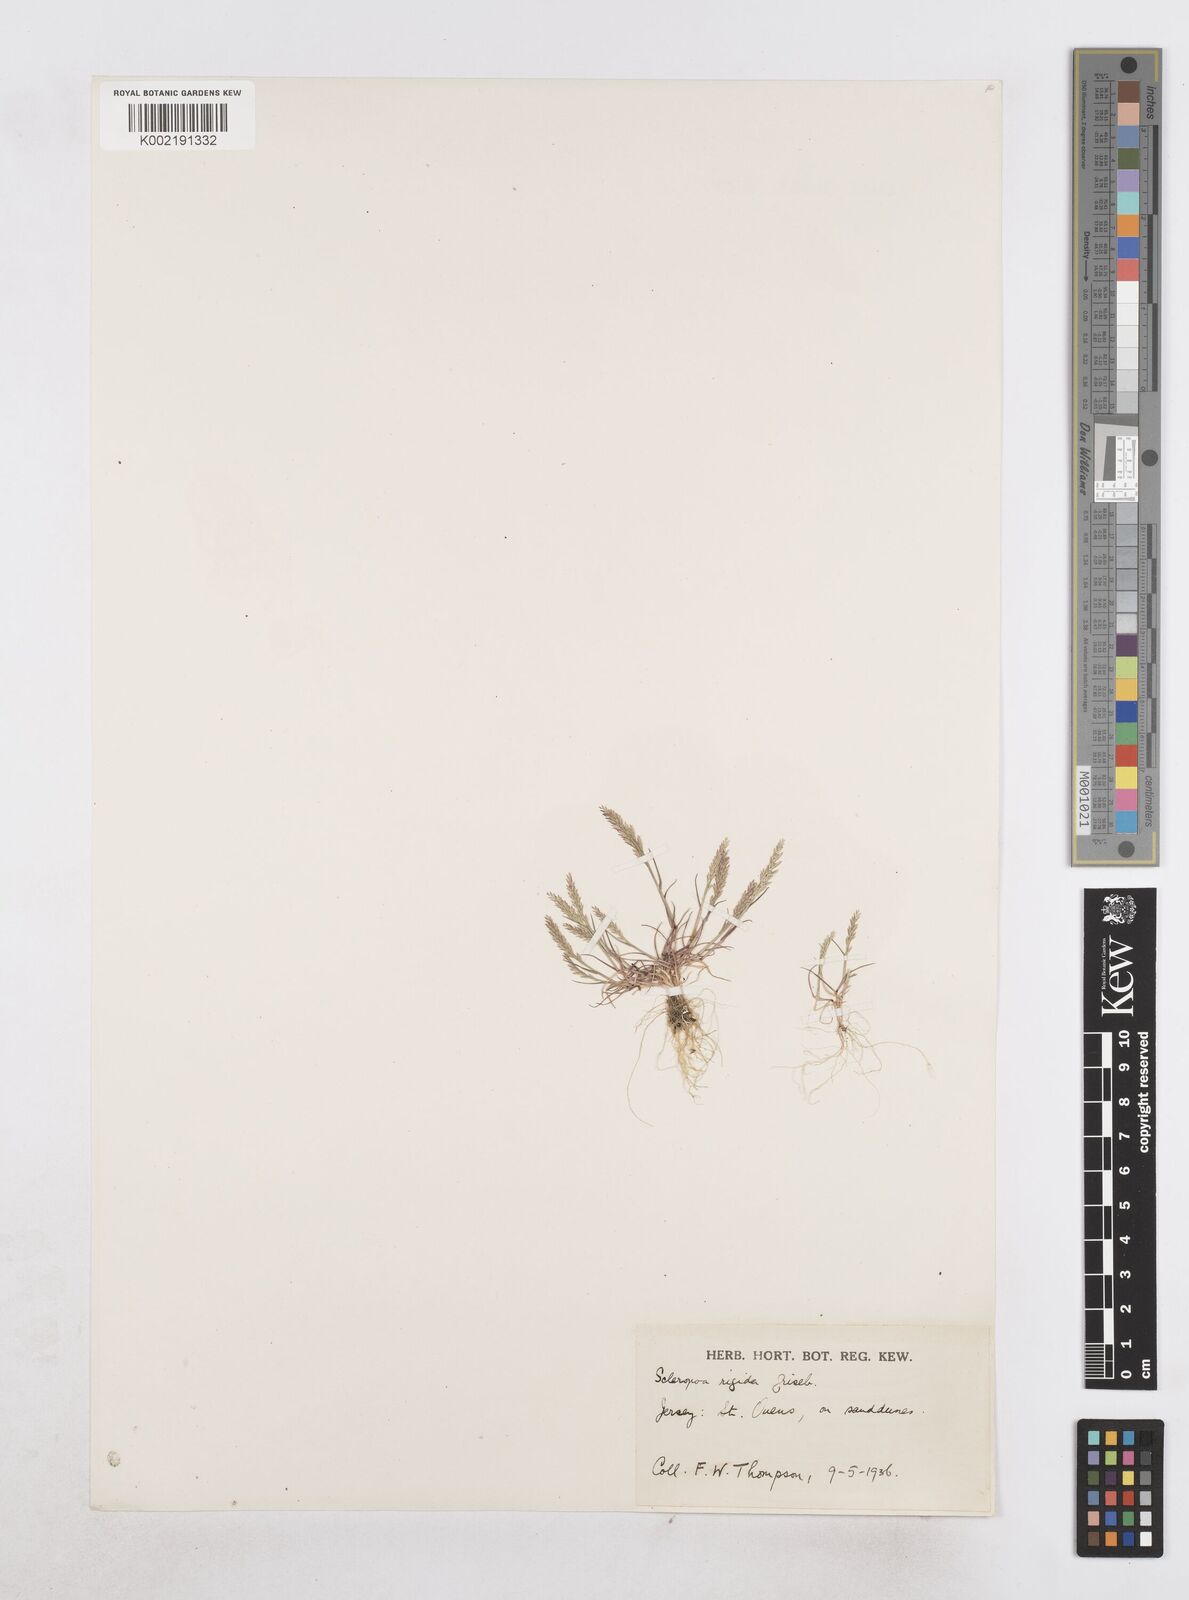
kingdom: Plantae
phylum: Tracheophyta
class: Liliopsida
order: Poales
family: Poaceae
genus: Catapodium
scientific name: Catapodium rigidum
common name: Fern-grass
